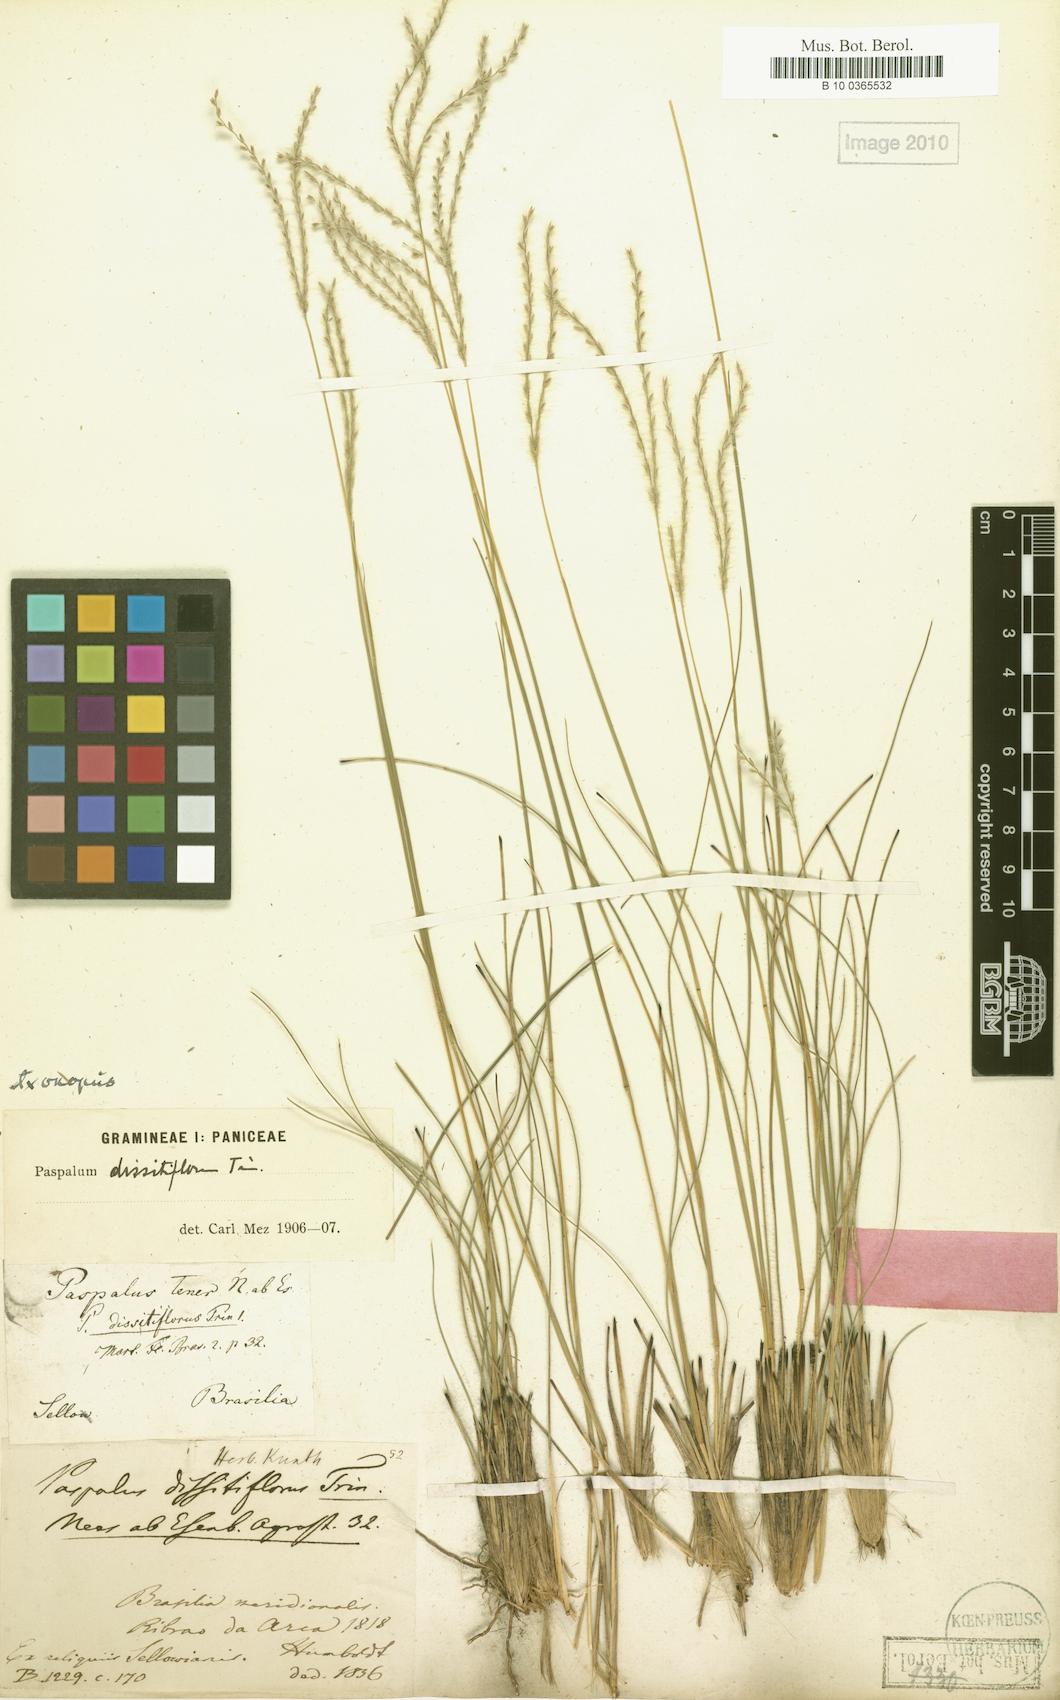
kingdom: Plantae
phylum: Tracheophyta
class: Liliopsida
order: Poales
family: Poaceae
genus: Axonopus
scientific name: Axonopus brasiliensis
